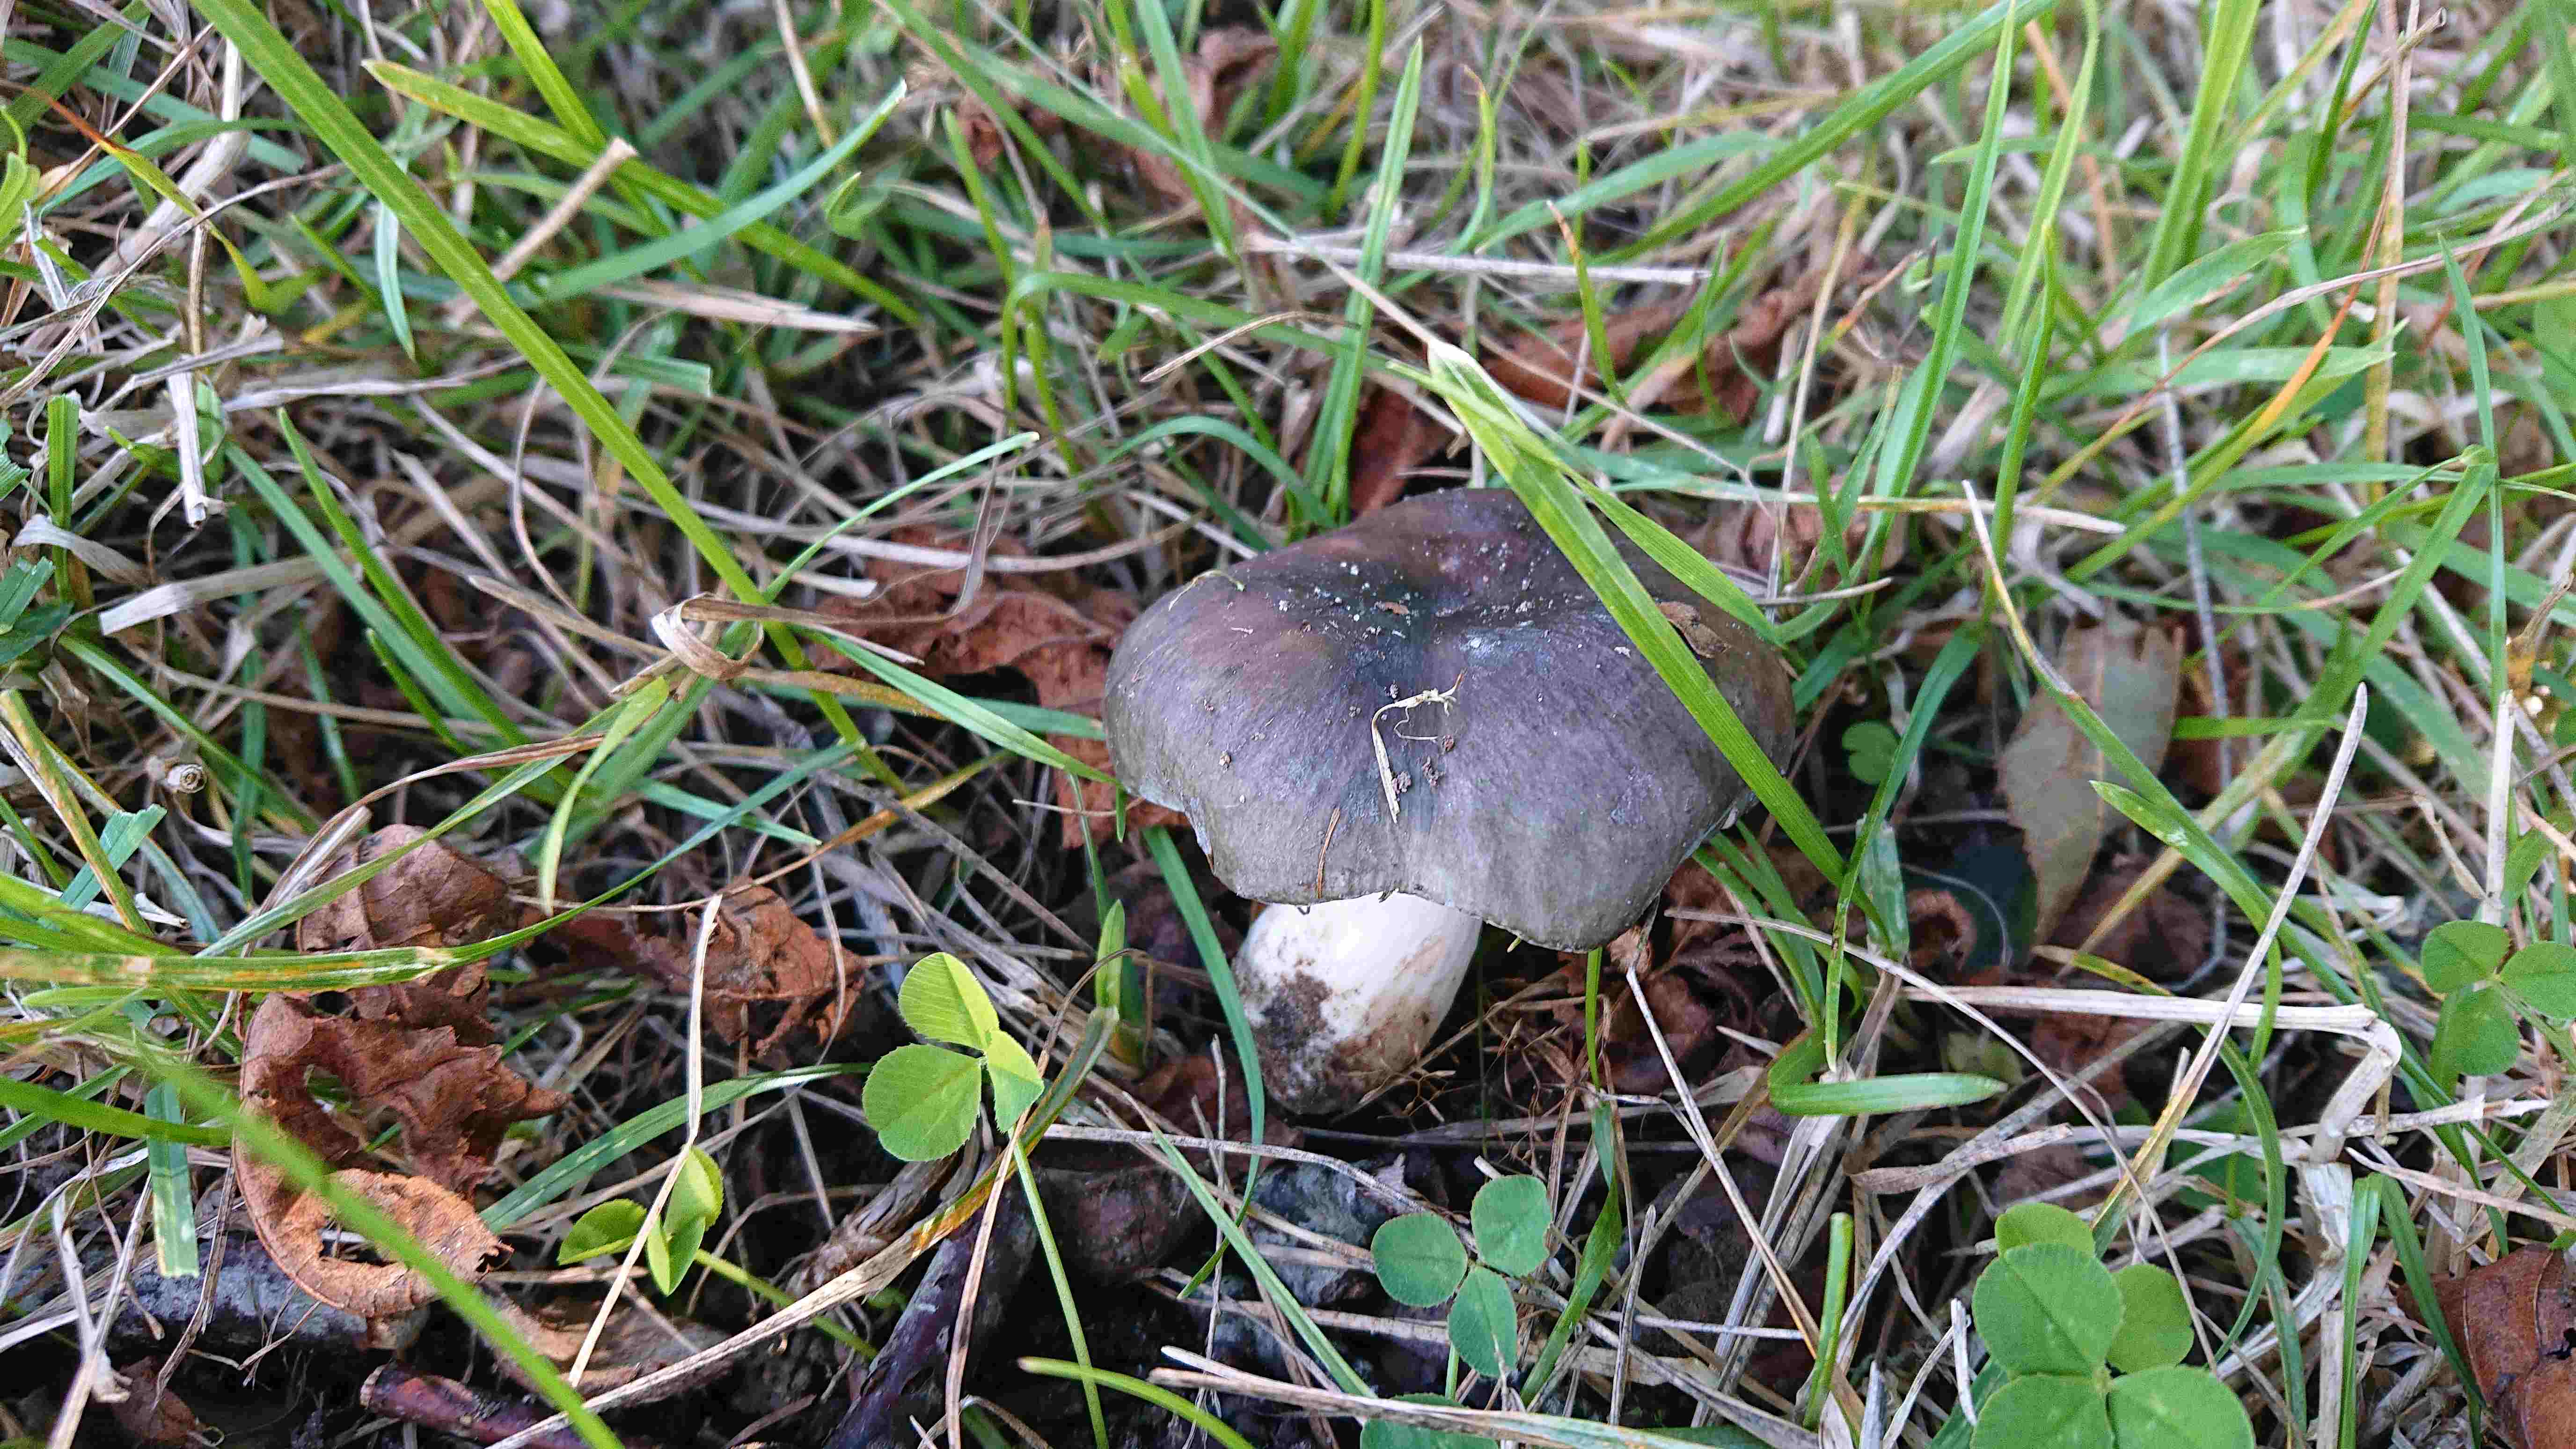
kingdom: Fungi
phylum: Basidiomycota
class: Agaricomycetes
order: Russulales
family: Russulaceae
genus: Russula
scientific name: Russula
